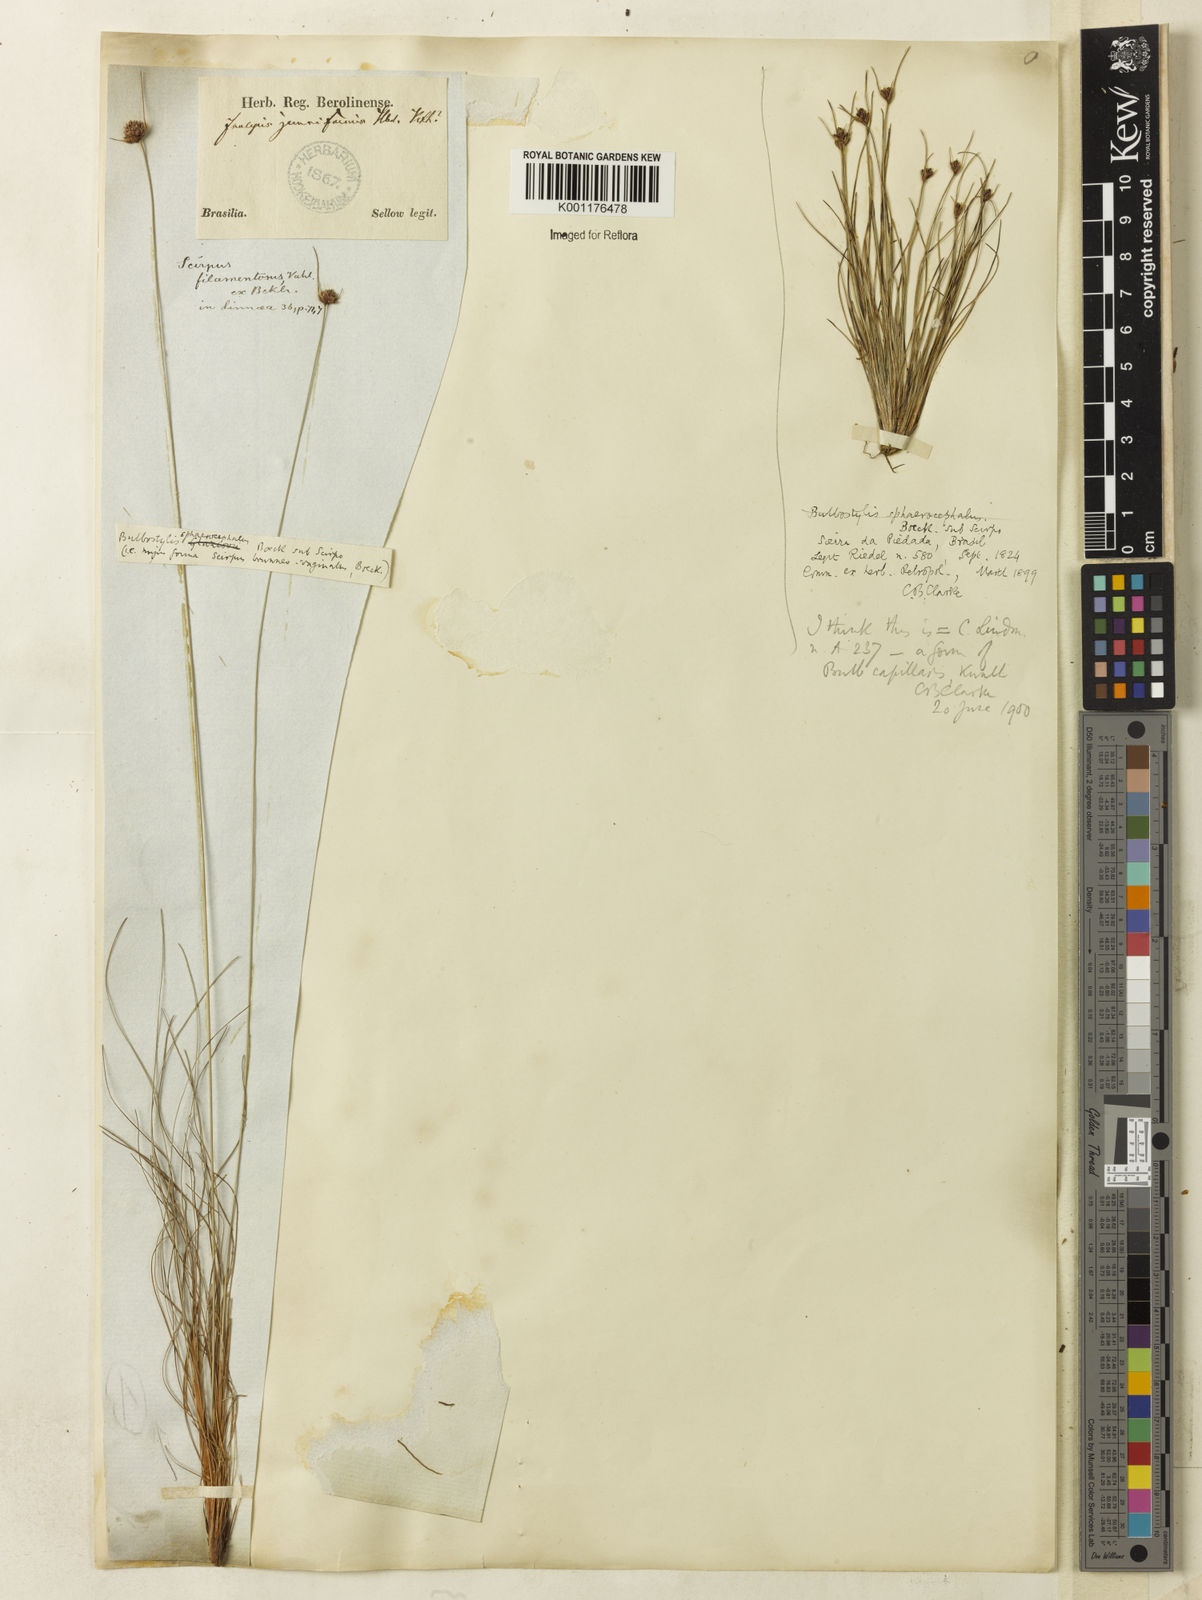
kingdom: Plantae
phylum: Tracheophyta
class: Liliopsida
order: Poales
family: Cyperaceae
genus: Bulbostylis
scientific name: Bulbostylis
